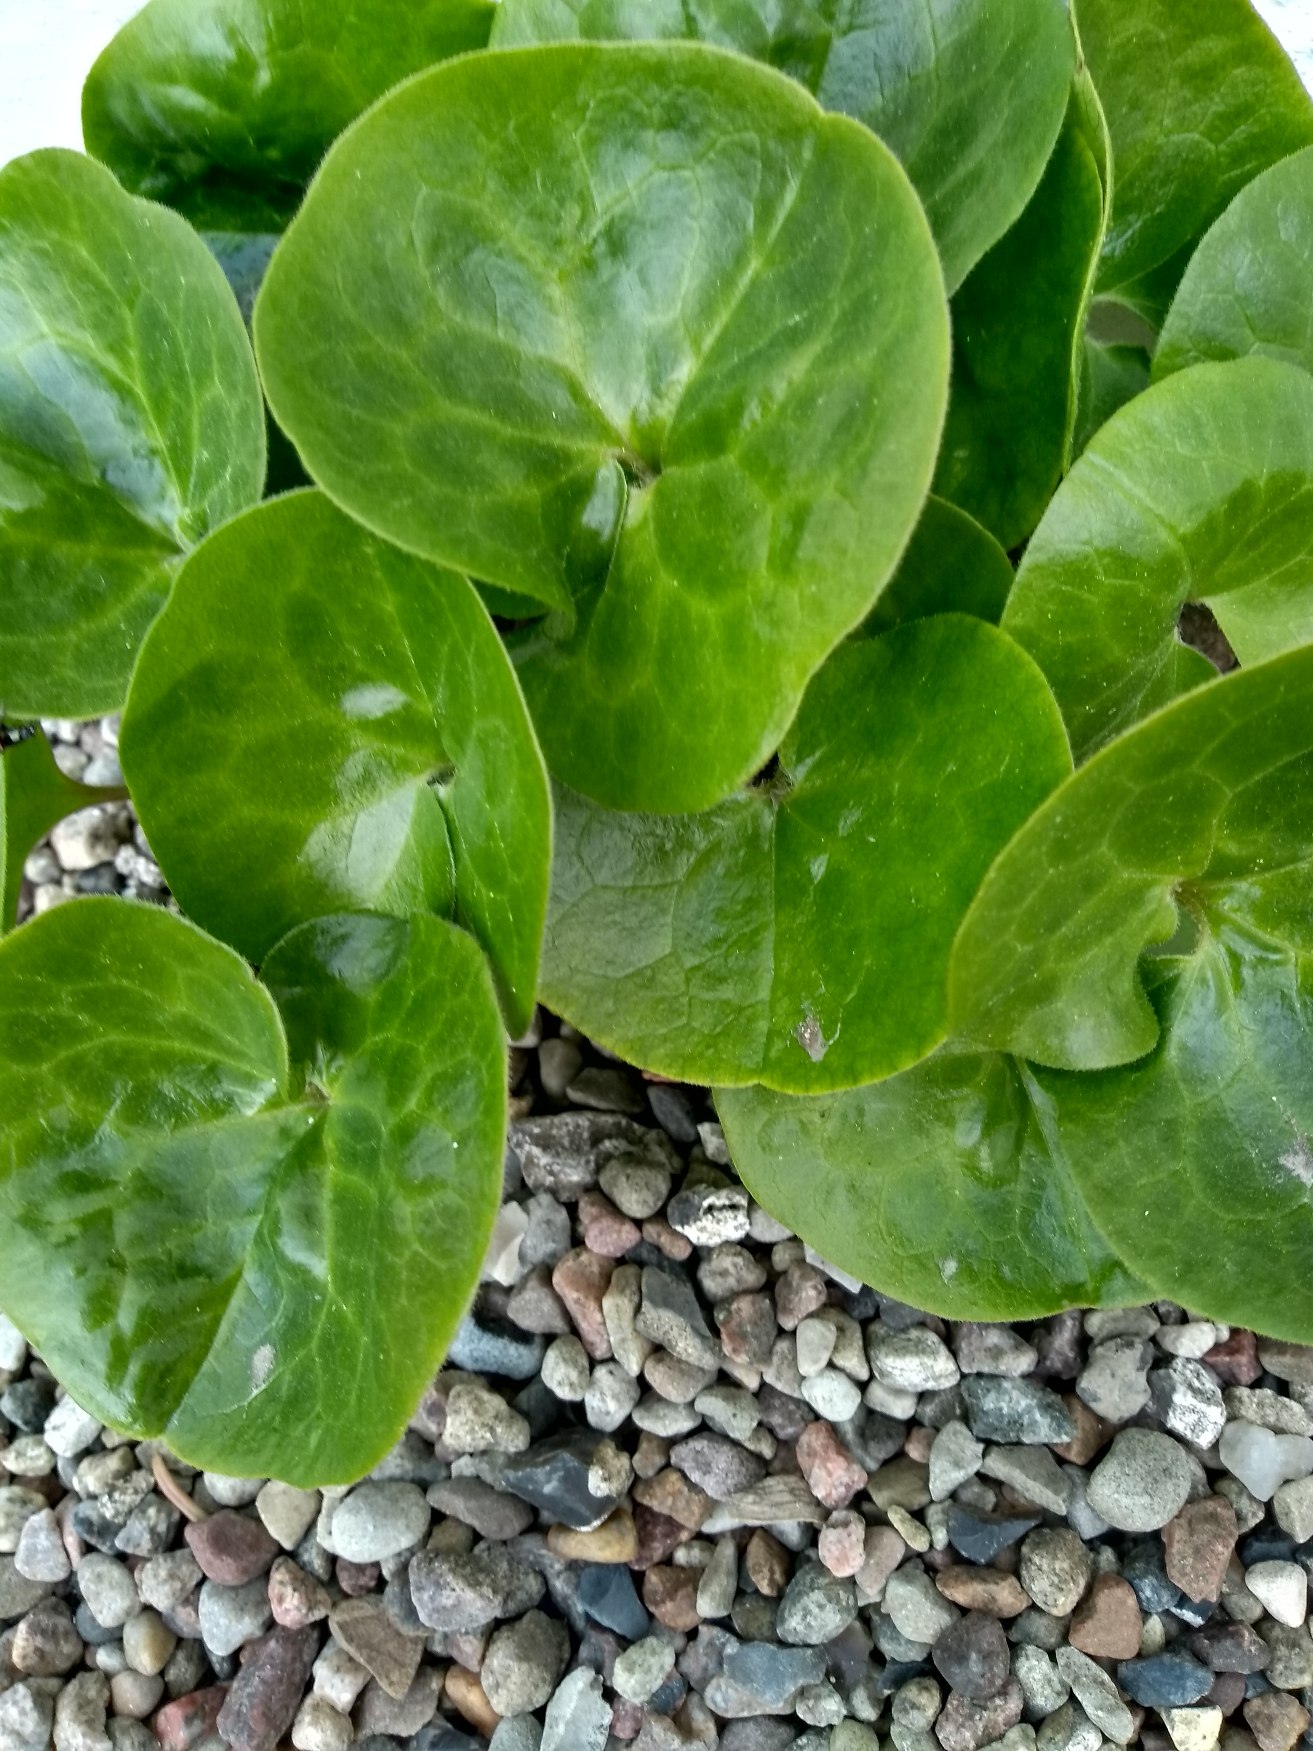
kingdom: Plantae
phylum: Tracheophyta
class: Magnoliopsida
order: Piperales
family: Aristolochiaceae
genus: Asarum
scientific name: Asarum europaeum
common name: Hasselurt
